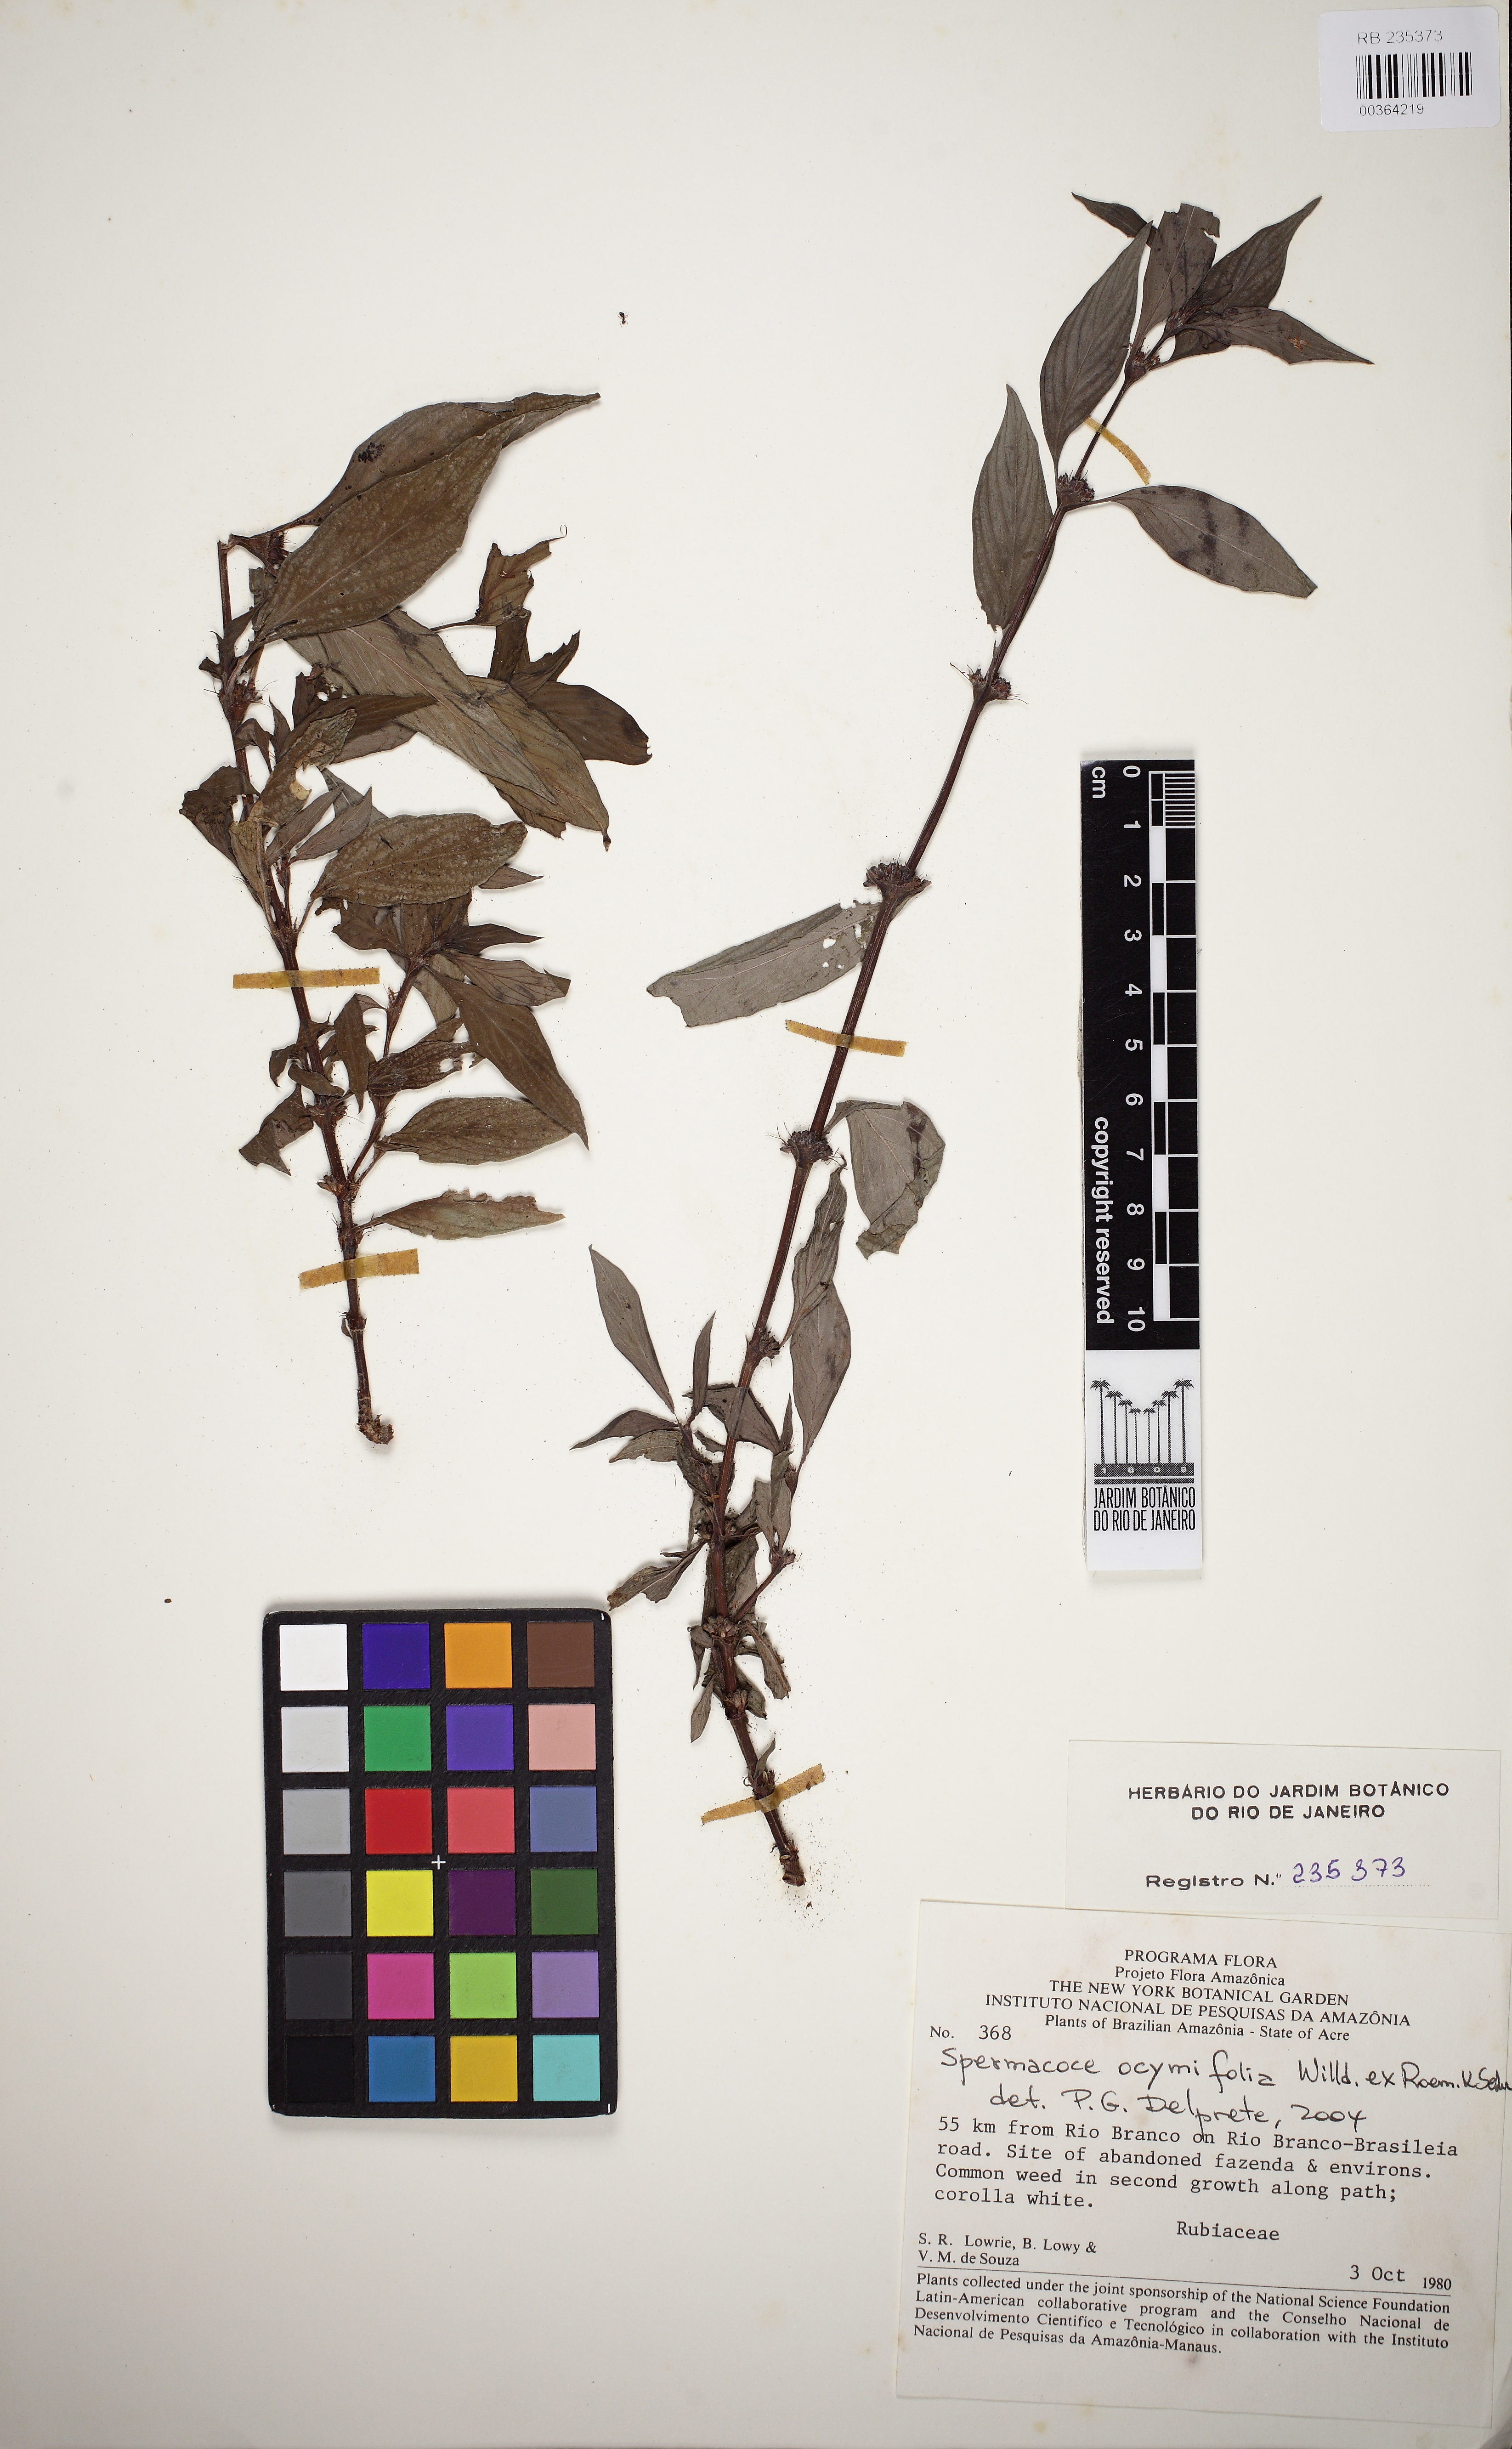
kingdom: Plantae
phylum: Tracheophyta
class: Magnoliopsida
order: Gentianales
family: Rubiaceae
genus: Spermacoce
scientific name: Spermacoce ocymifolia
